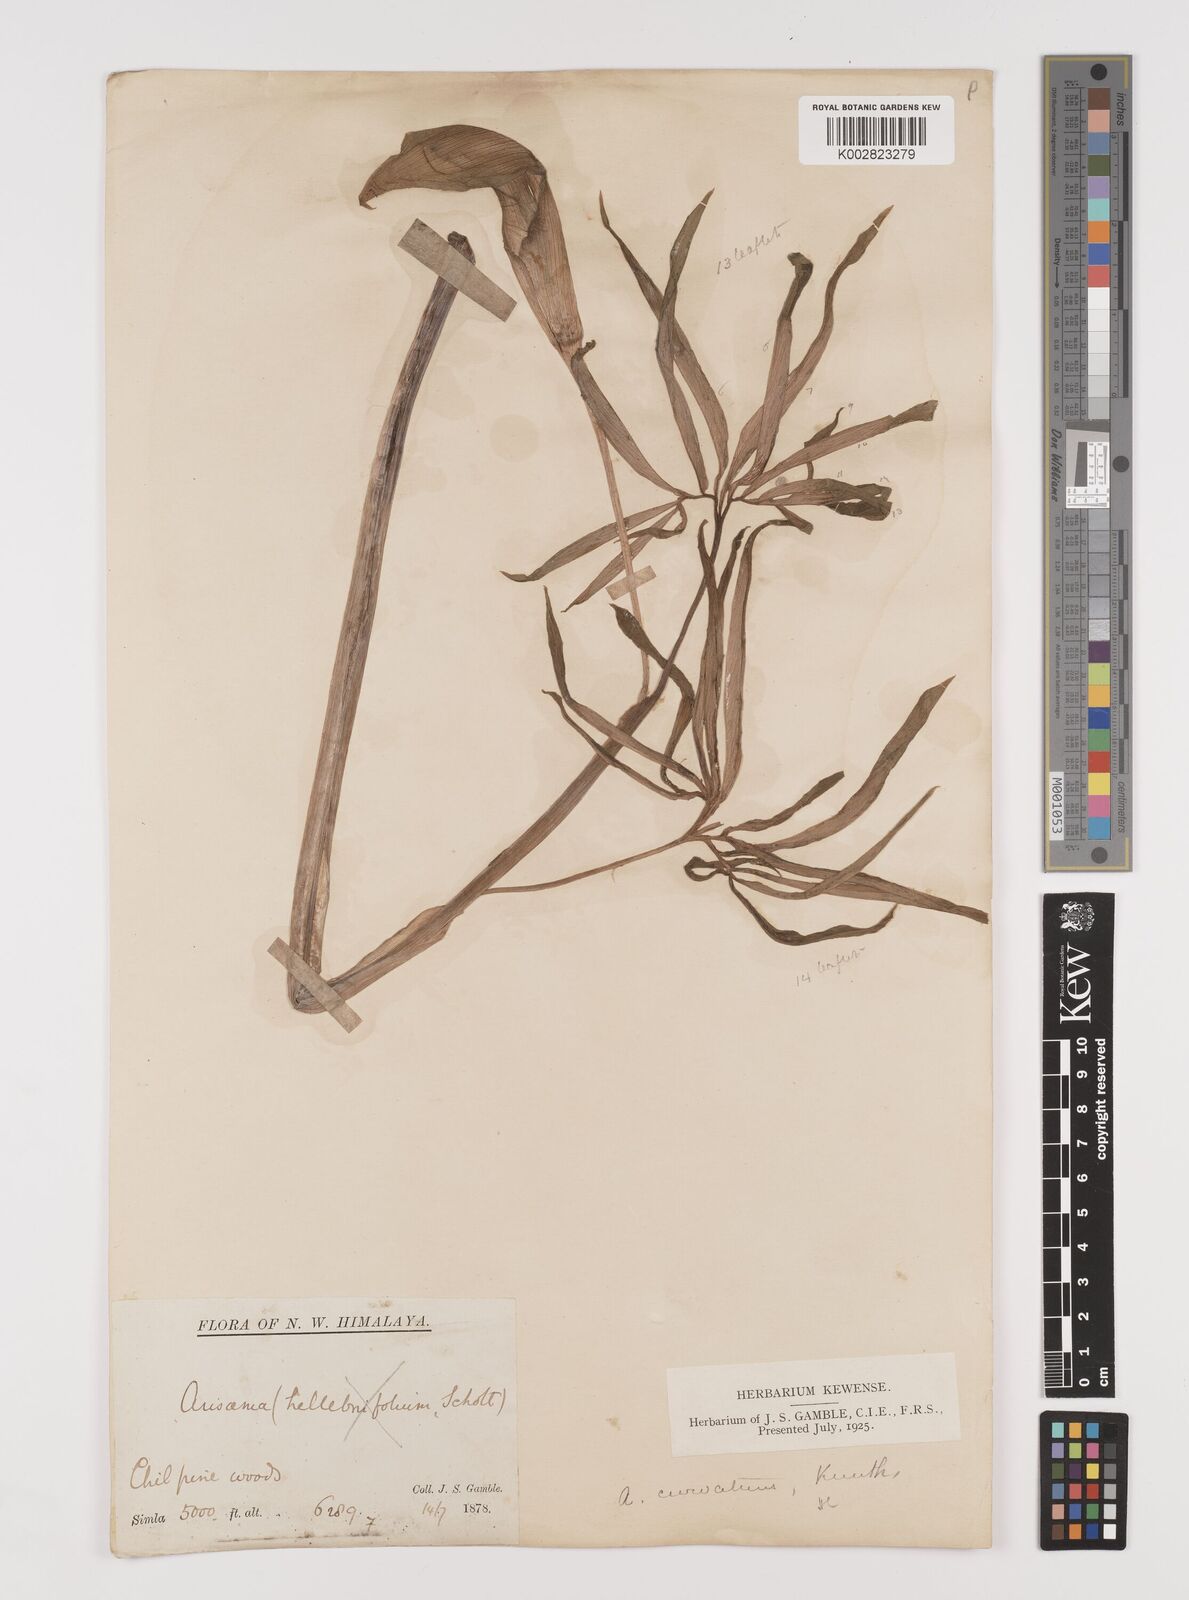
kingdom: Plantae
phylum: Tracheophyta
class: Liliopsida
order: Alismatales
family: Araceae
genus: Arisaema
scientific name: Arisaema tortuosum
